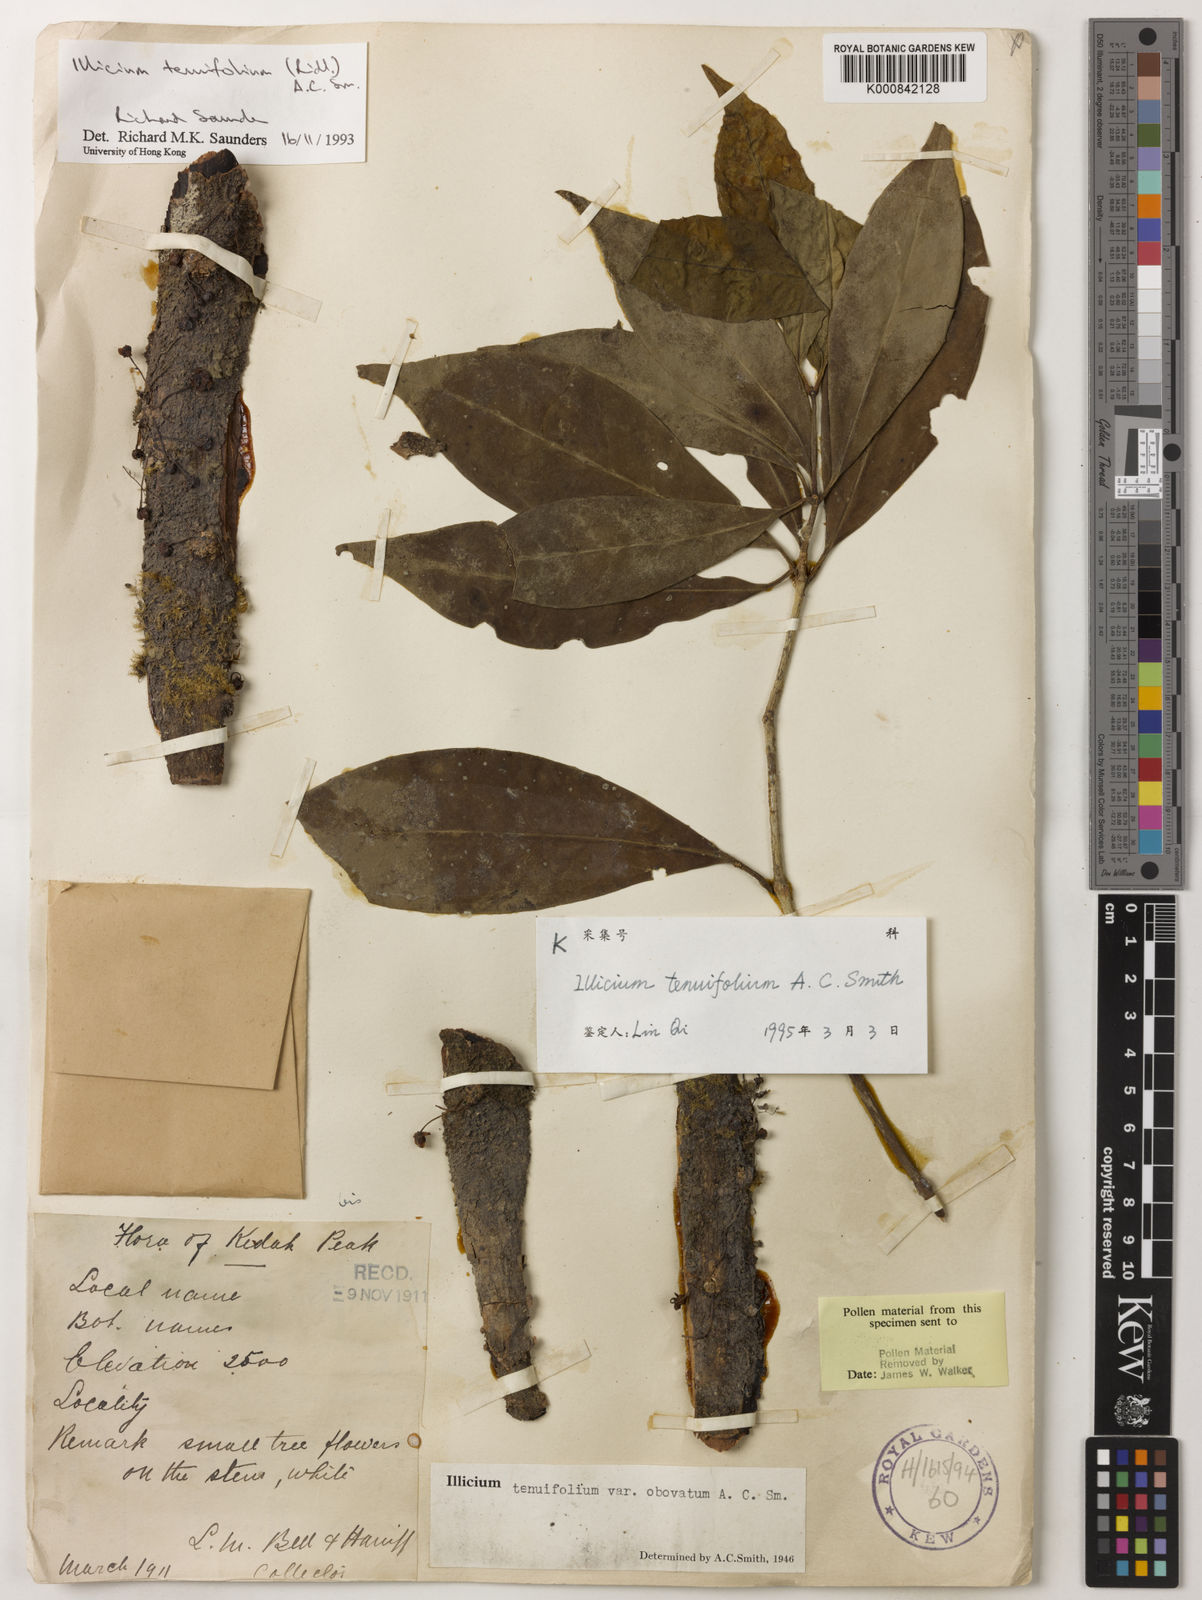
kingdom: Plantae
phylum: Tracheophyta
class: Magnoliopsida
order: Austrobaileyales
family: Schisandraceae
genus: Illicium
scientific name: Illicium tenuifolium
